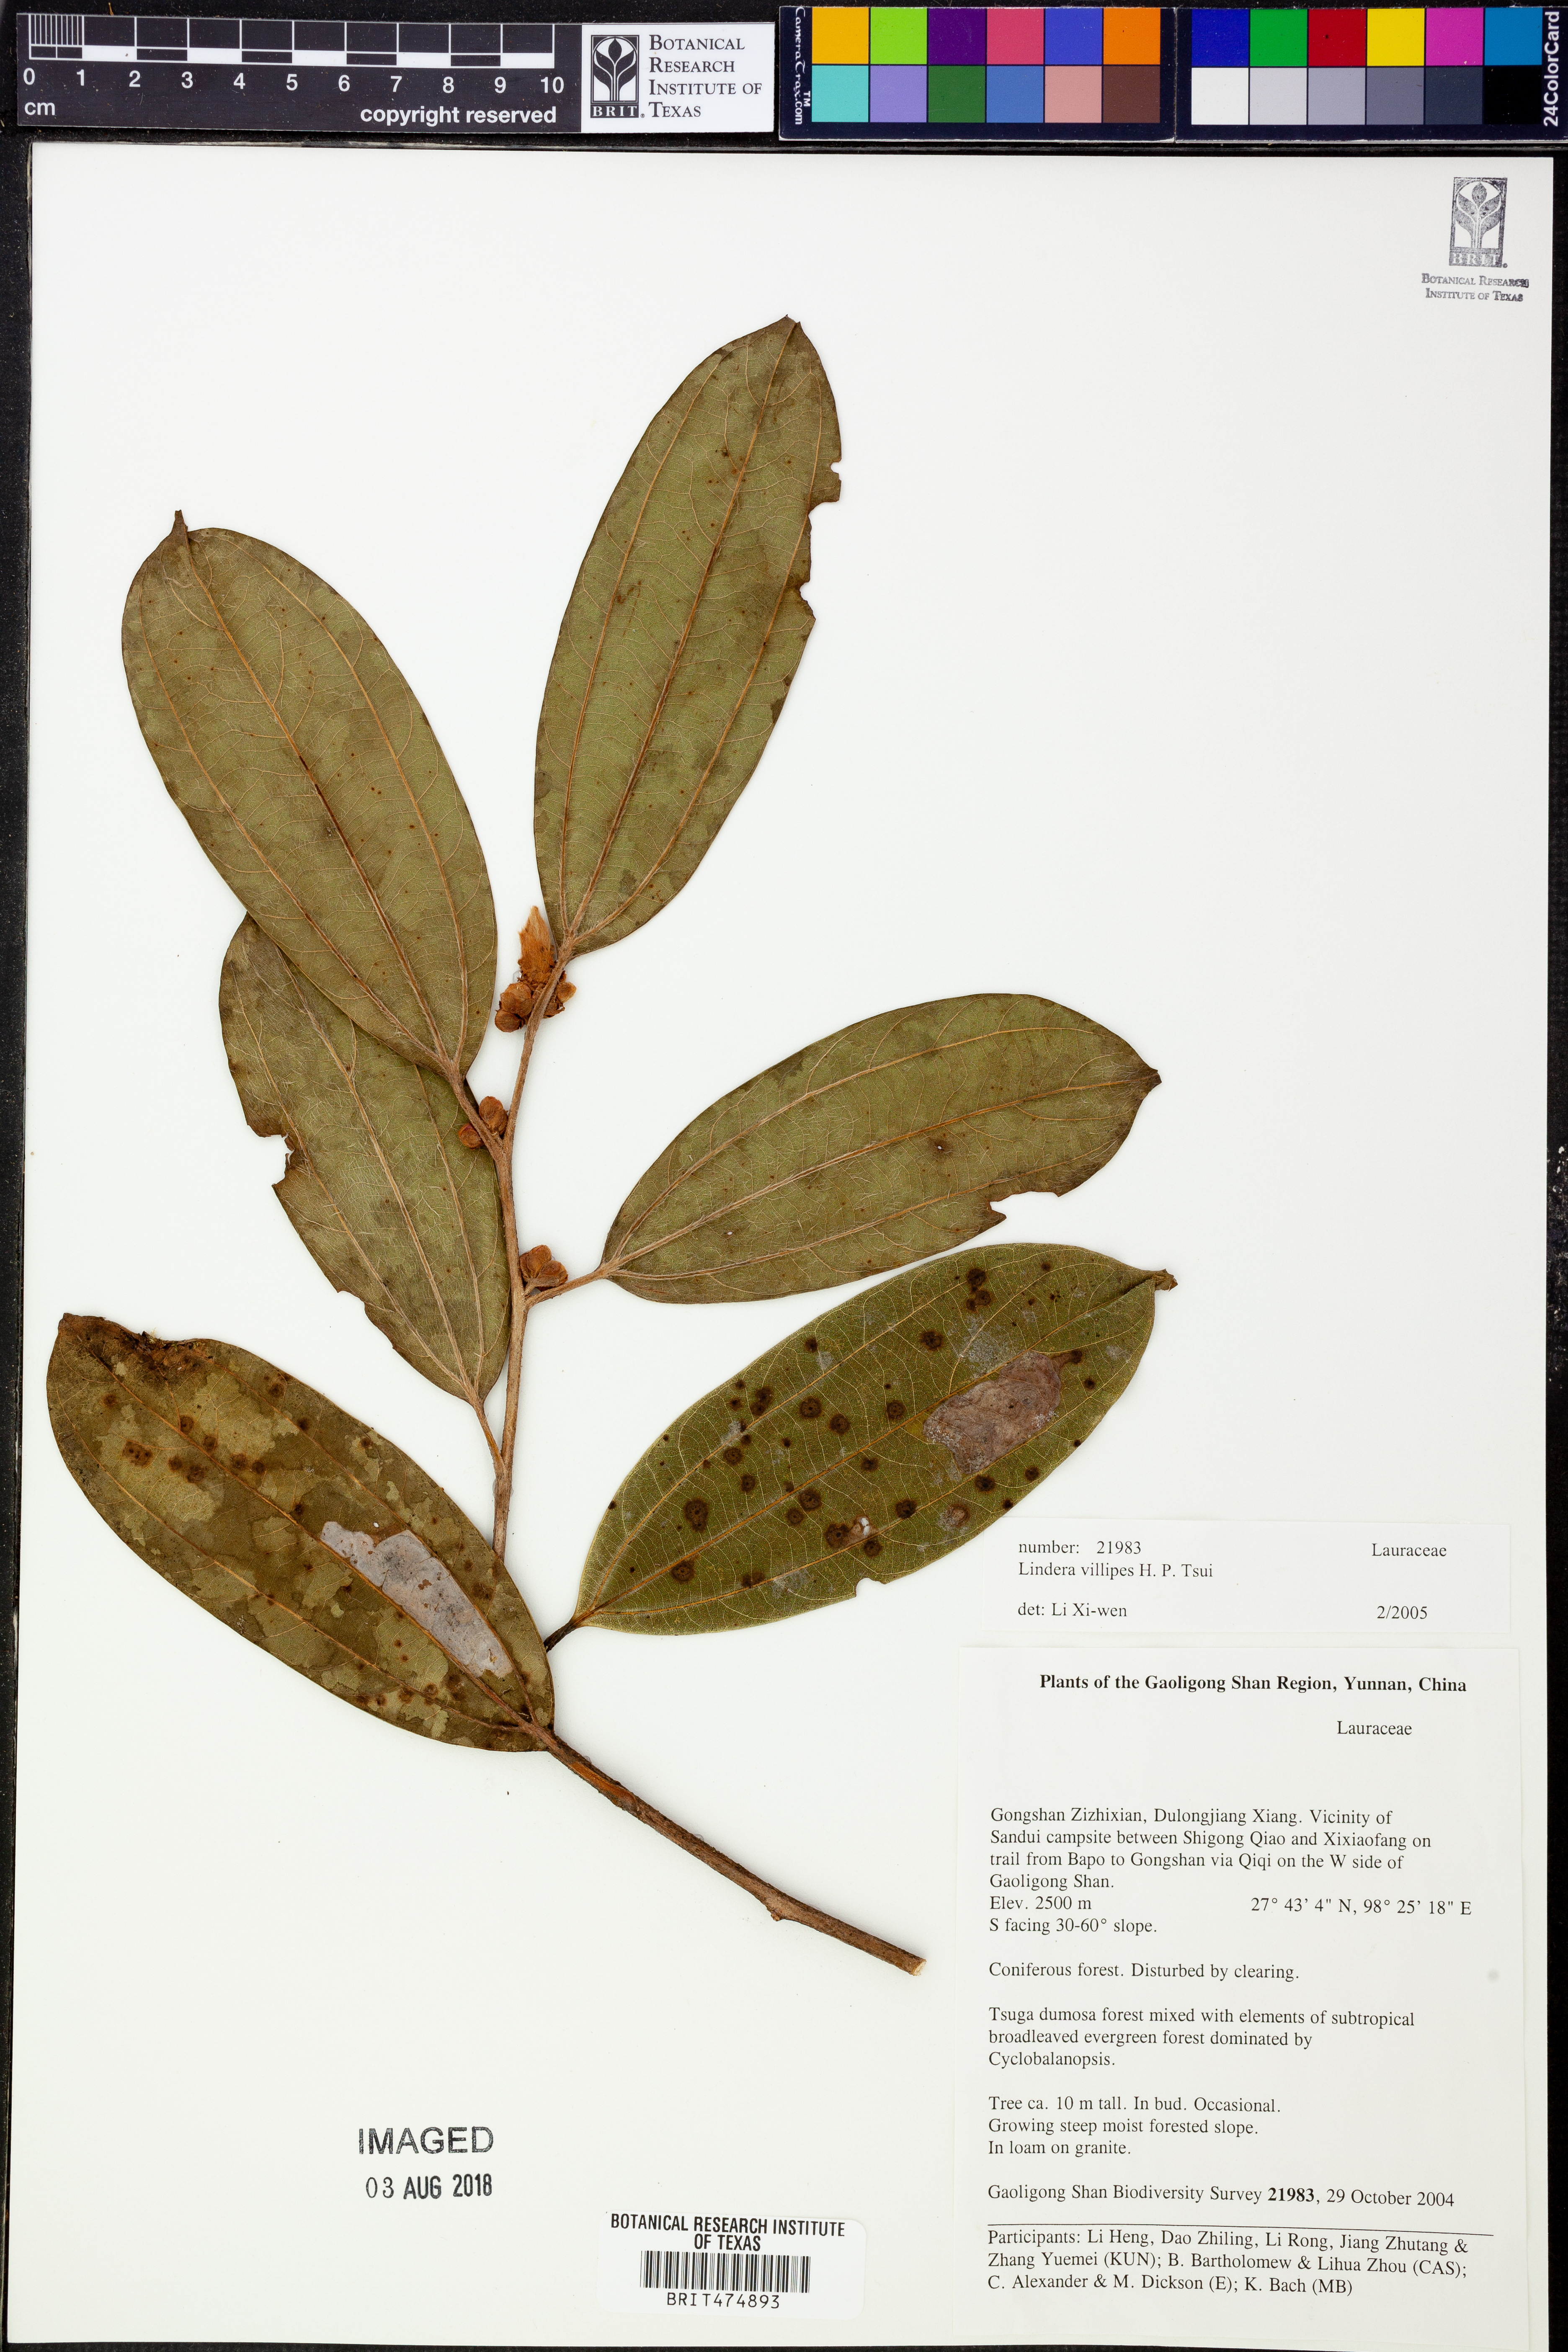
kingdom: Plantae
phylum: Tracheophyta
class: Magnoliopsida
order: Laurales
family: Lauraceae
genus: Lindera
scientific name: Lindera villipes
